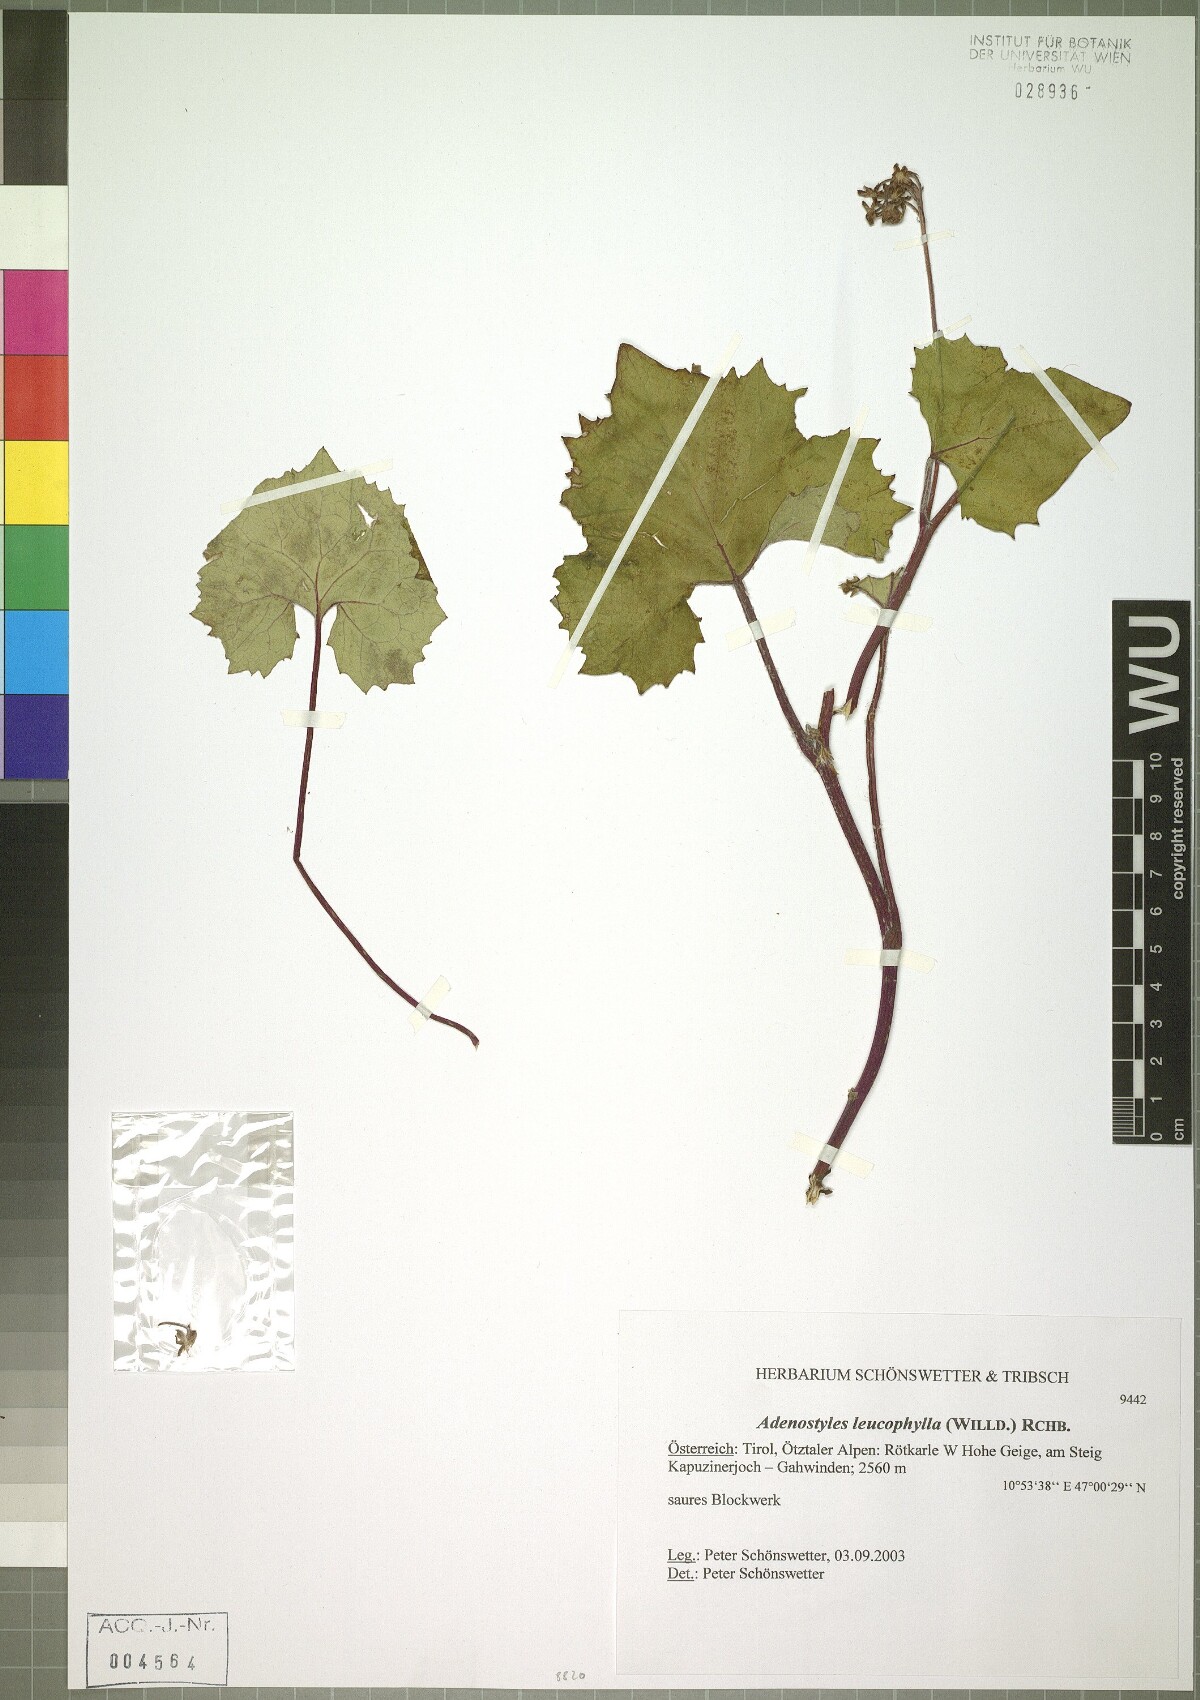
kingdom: Plantae
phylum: Tracheophyta
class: Magnoliopsida
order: Asterales
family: Asteraceae
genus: Adenostyles
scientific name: Adenostyles leucophylla
